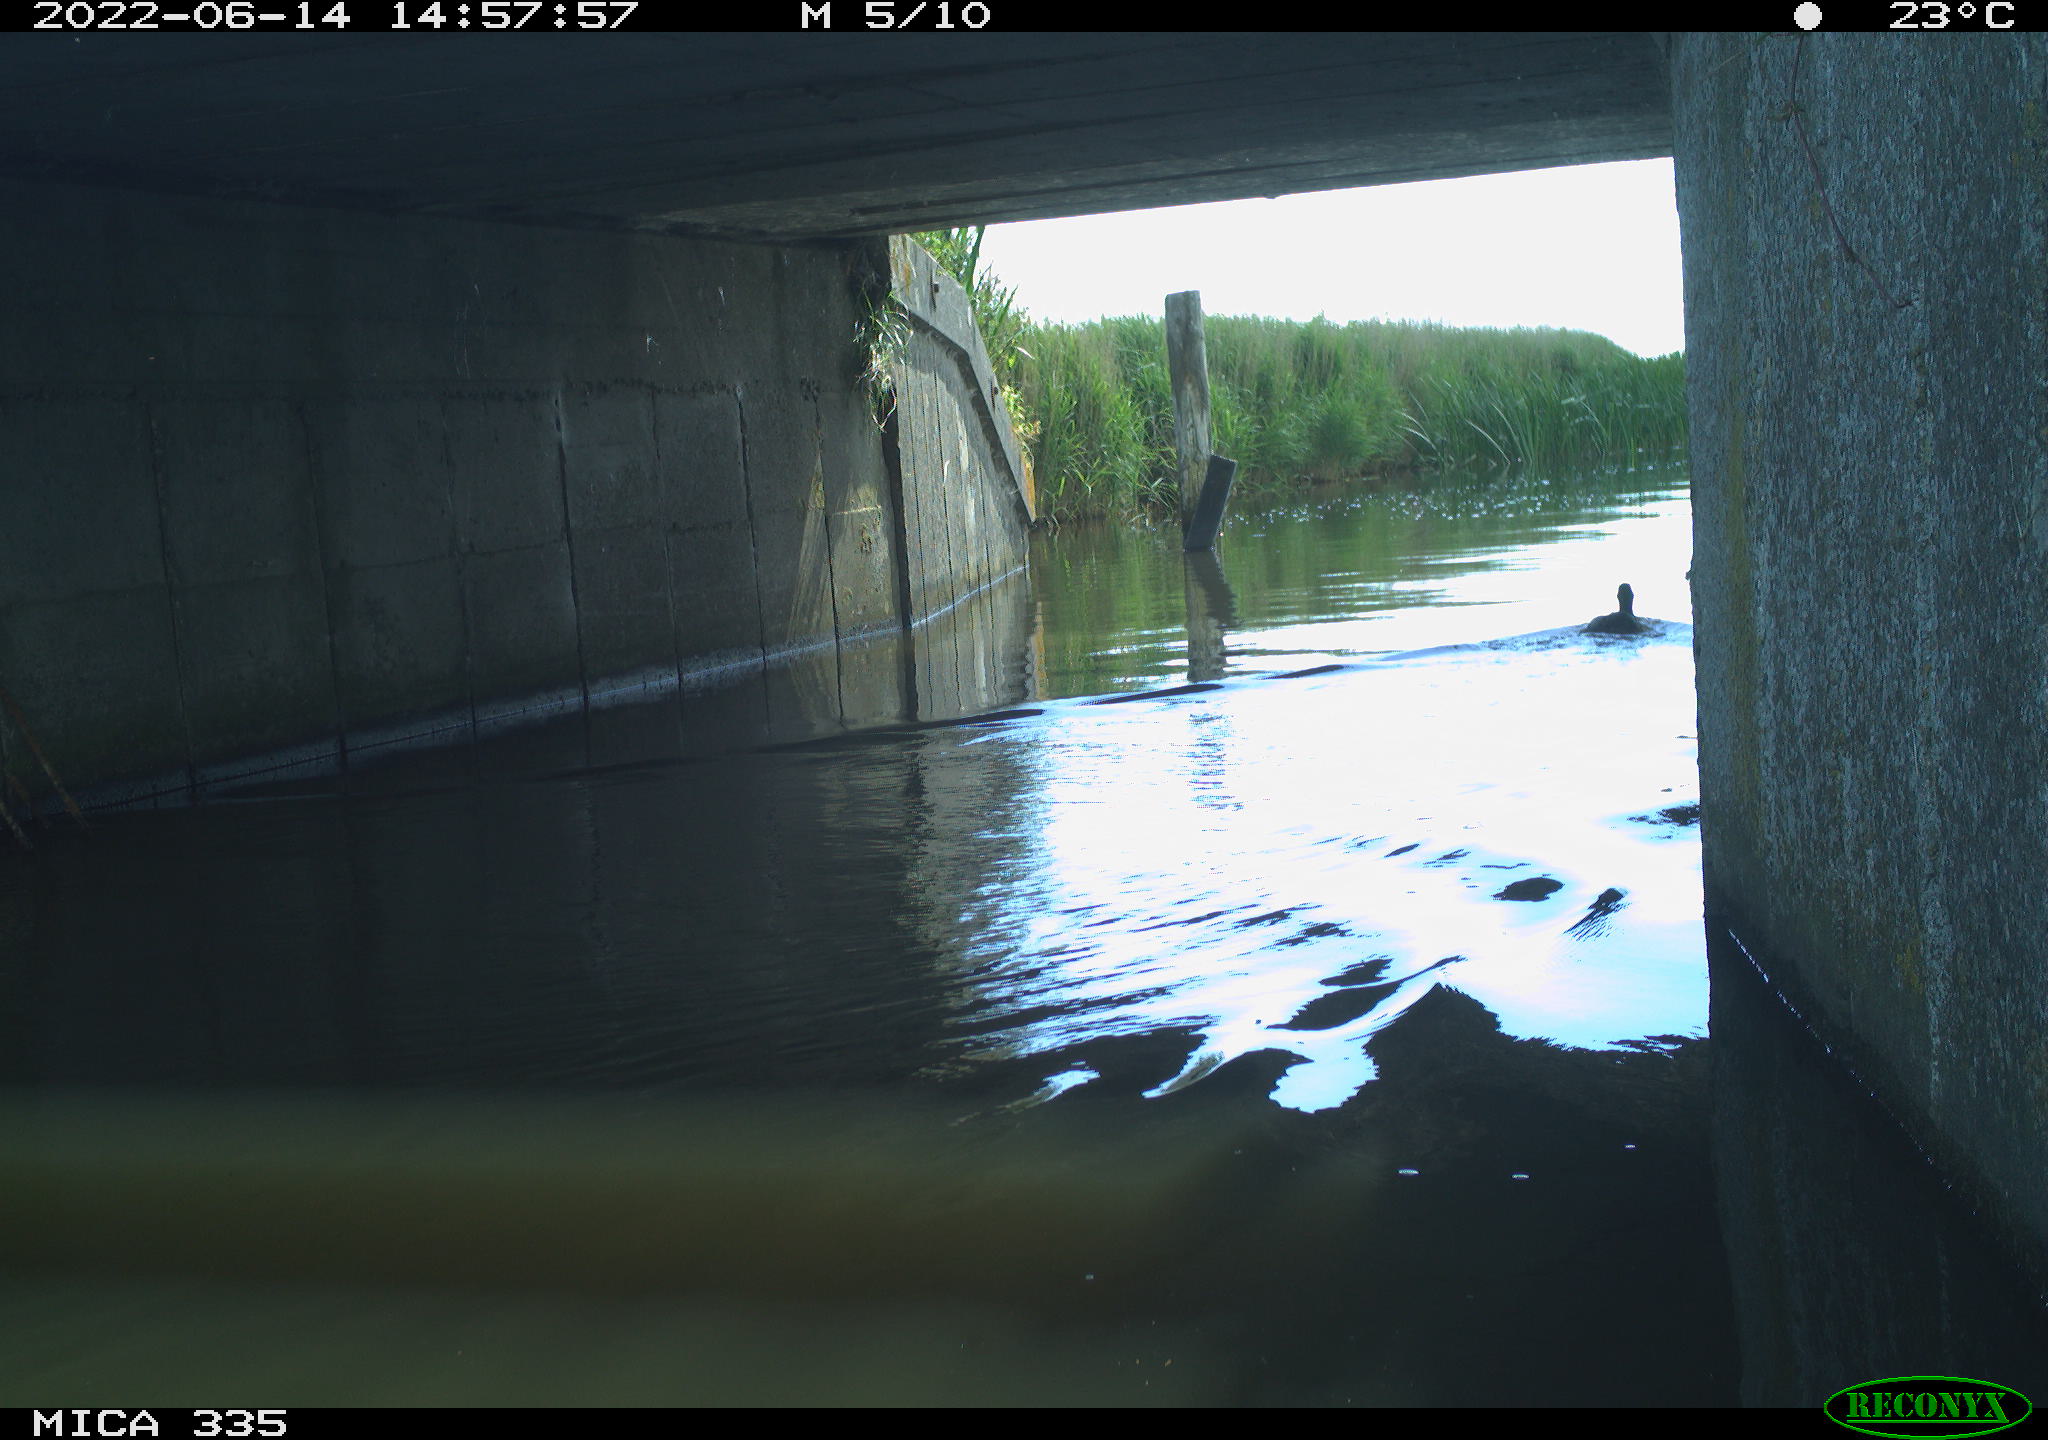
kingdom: Animalia
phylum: Chordata
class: Aves
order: Anseriformes
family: Anatidae
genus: Anas
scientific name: Anas platyrhynchos
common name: Mallard
